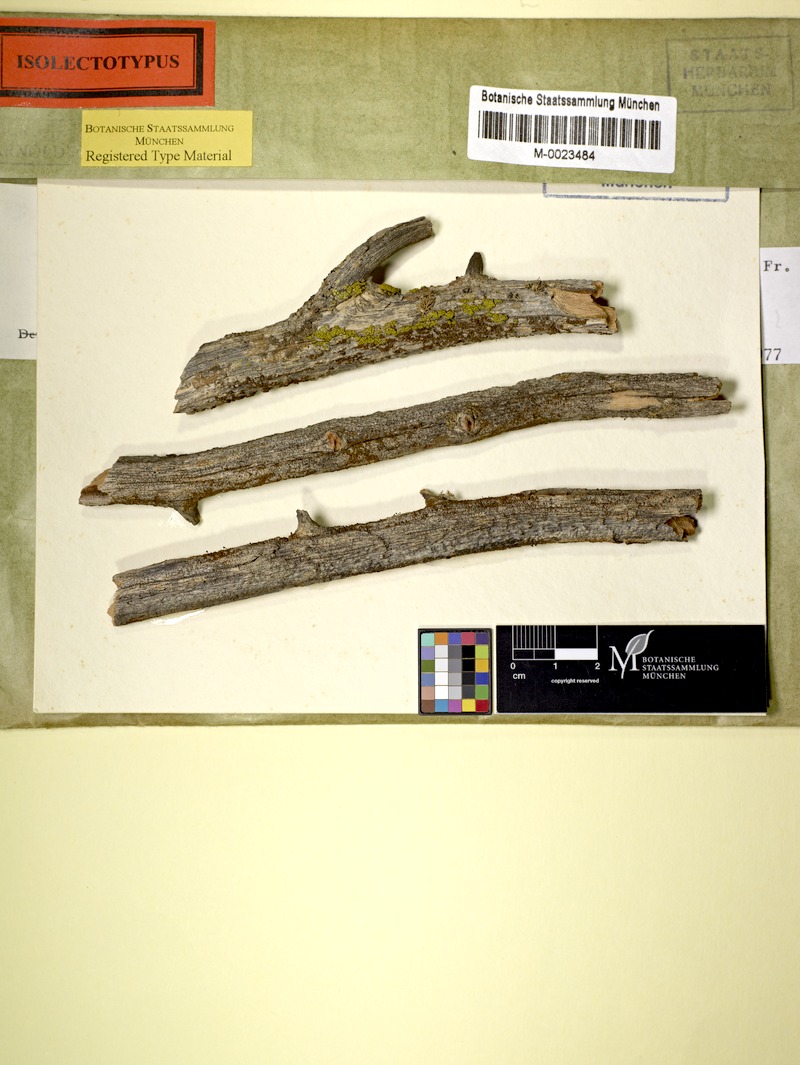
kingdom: Fungi
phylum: Ascomycota
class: Coniocybomycetes
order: Coniocybales
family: Coniocybaceae
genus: Chaenotheca
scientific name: Chaenotheca phaeocephala
